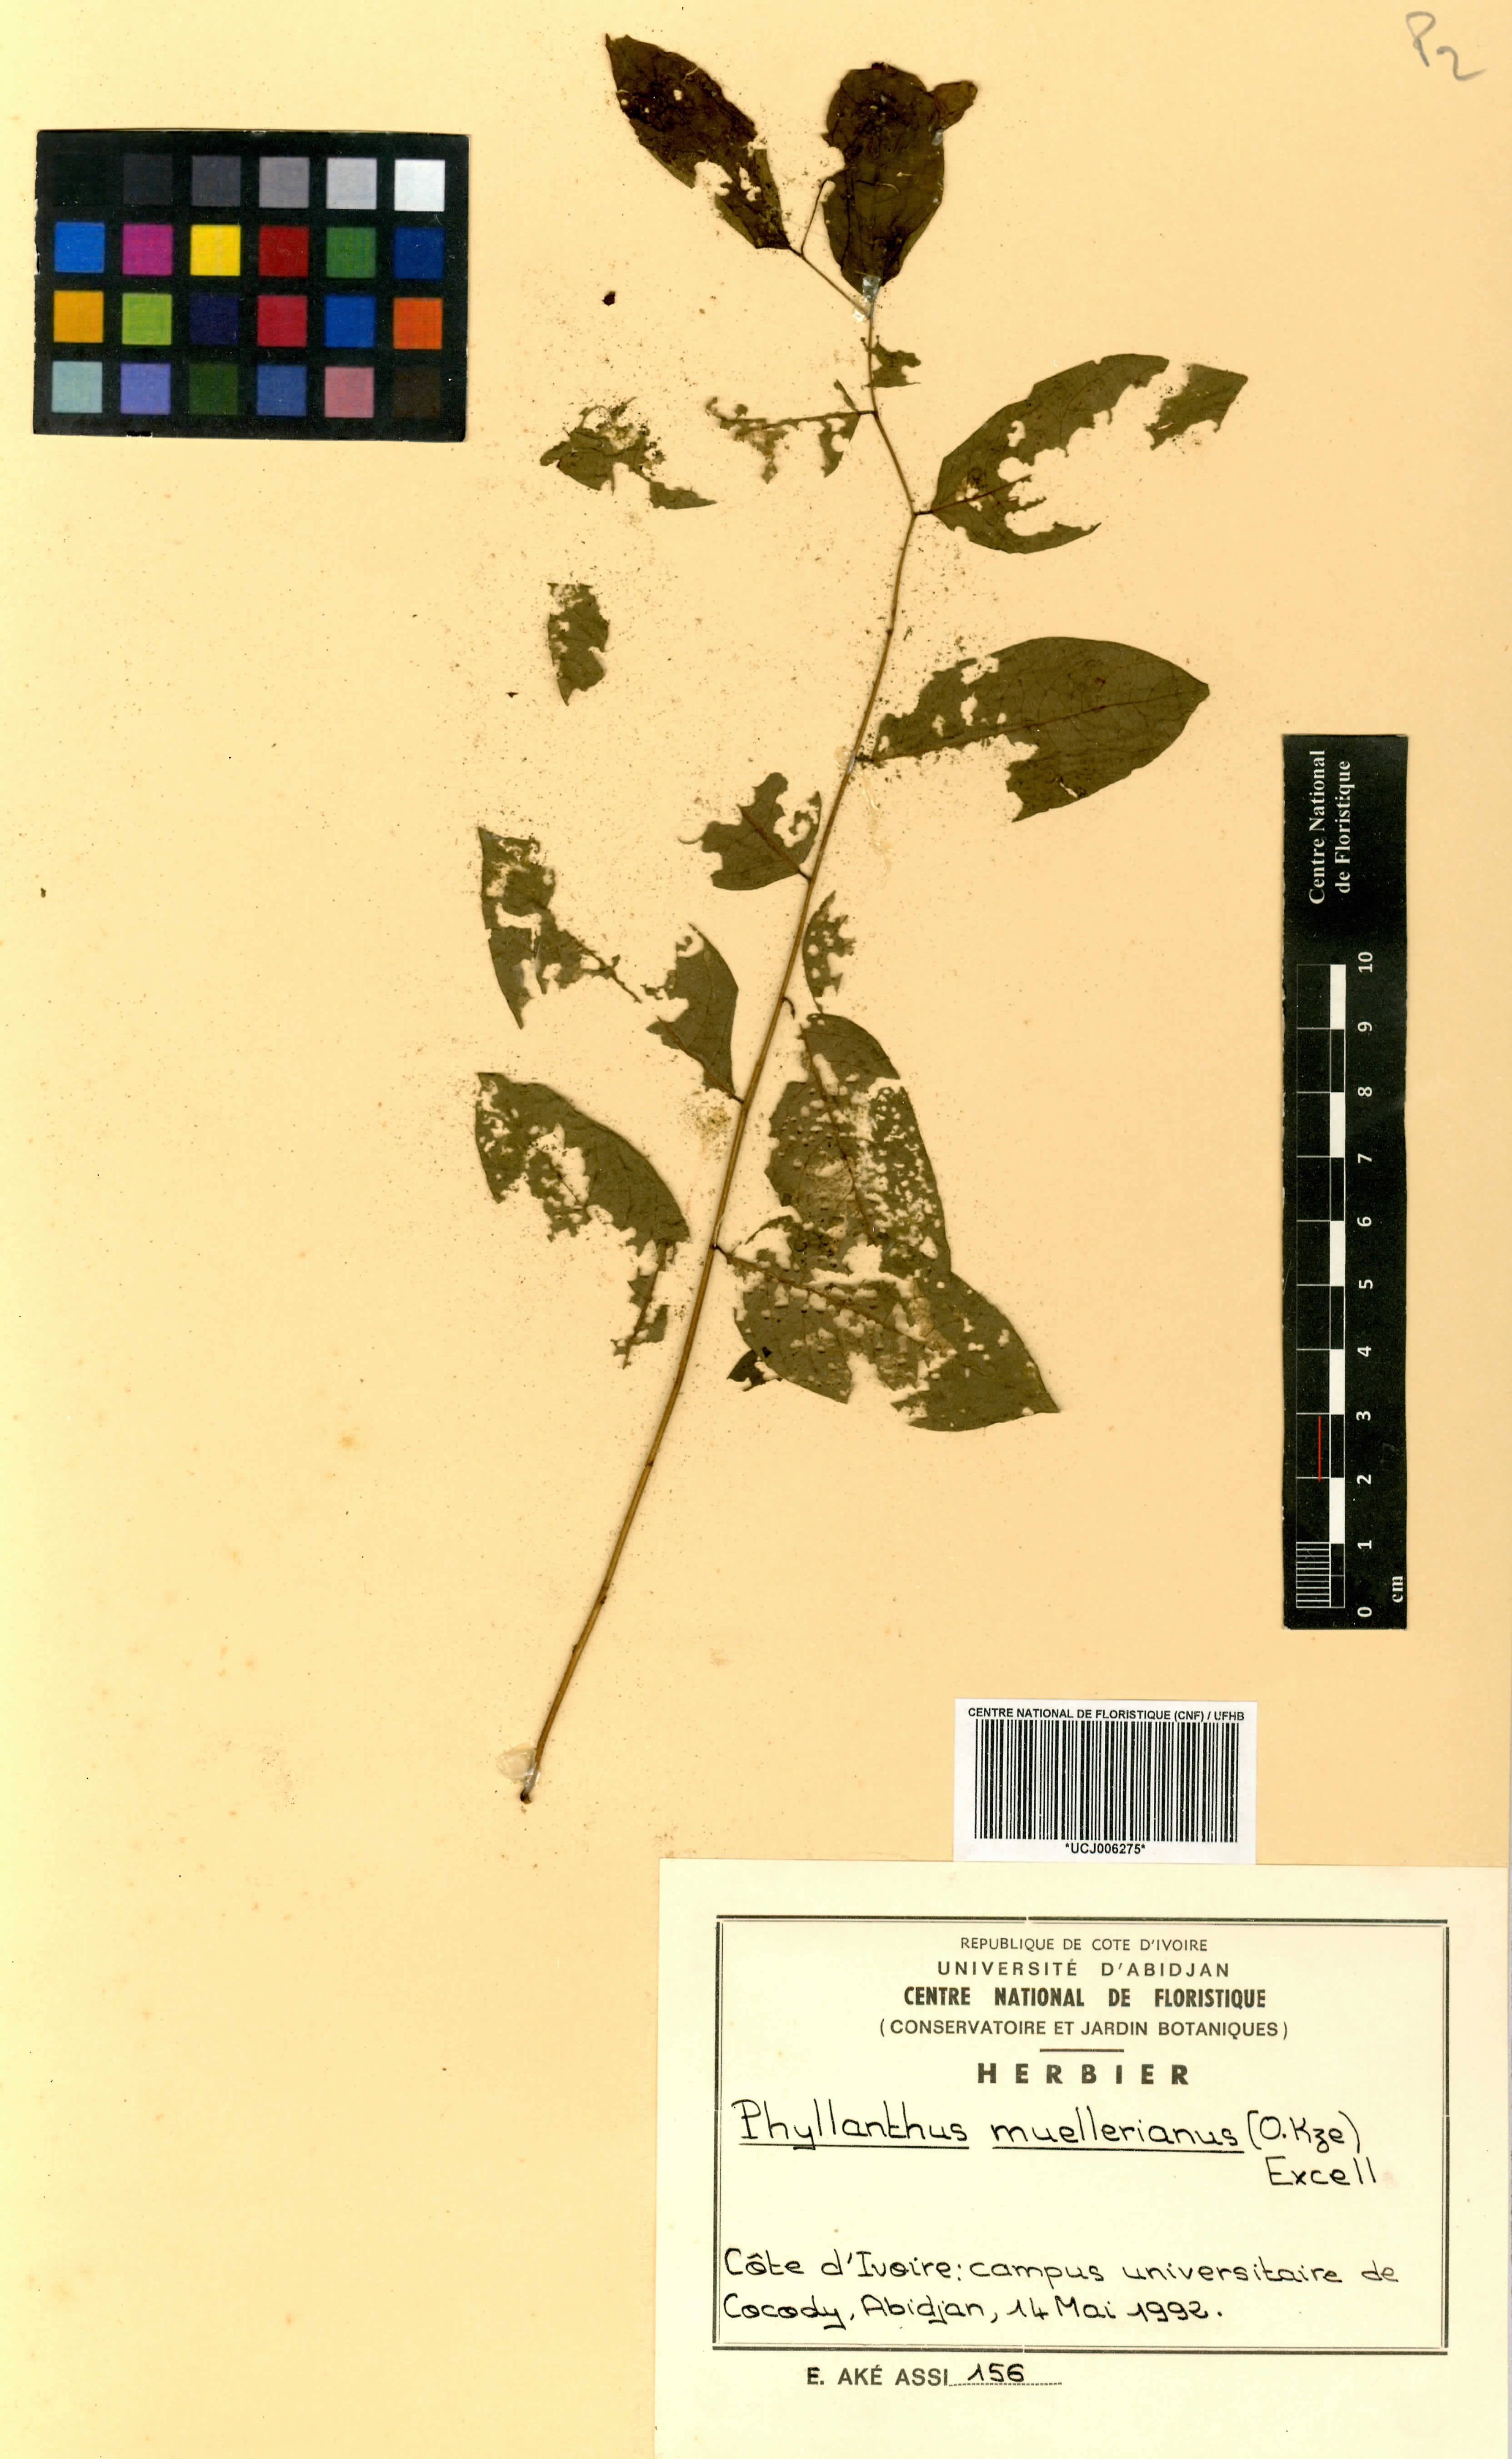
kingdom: Plantae
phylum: Tracheophyta
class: Magnoliopsida
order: Malpighiales
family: Phyllanthaceae
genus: Phyllanthus
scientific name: Phyllanthus muellerianus
